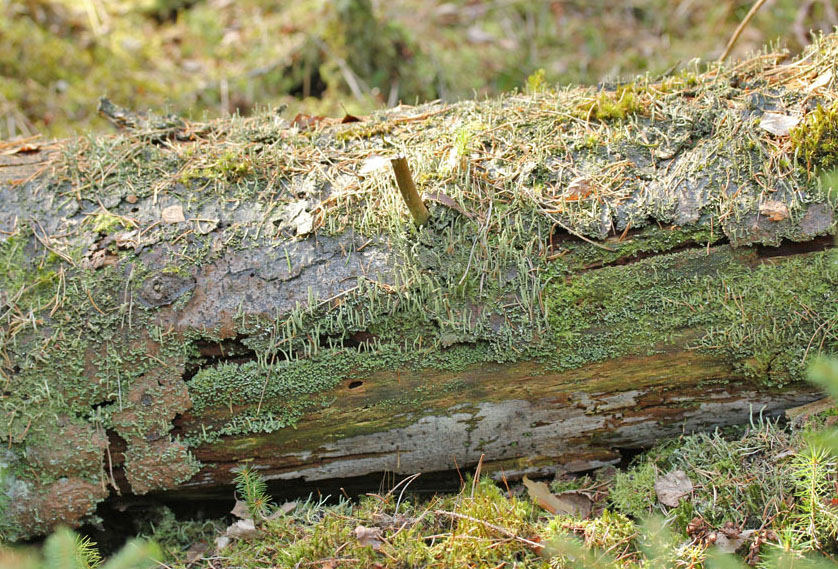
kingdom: Fungi
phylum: Basidiomycota
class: Agaricomycetes
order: Hymenochaetales
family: Rickenellaceae
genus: Resinicium
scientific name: Resinicium bicolor
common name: almindelig vokstand
